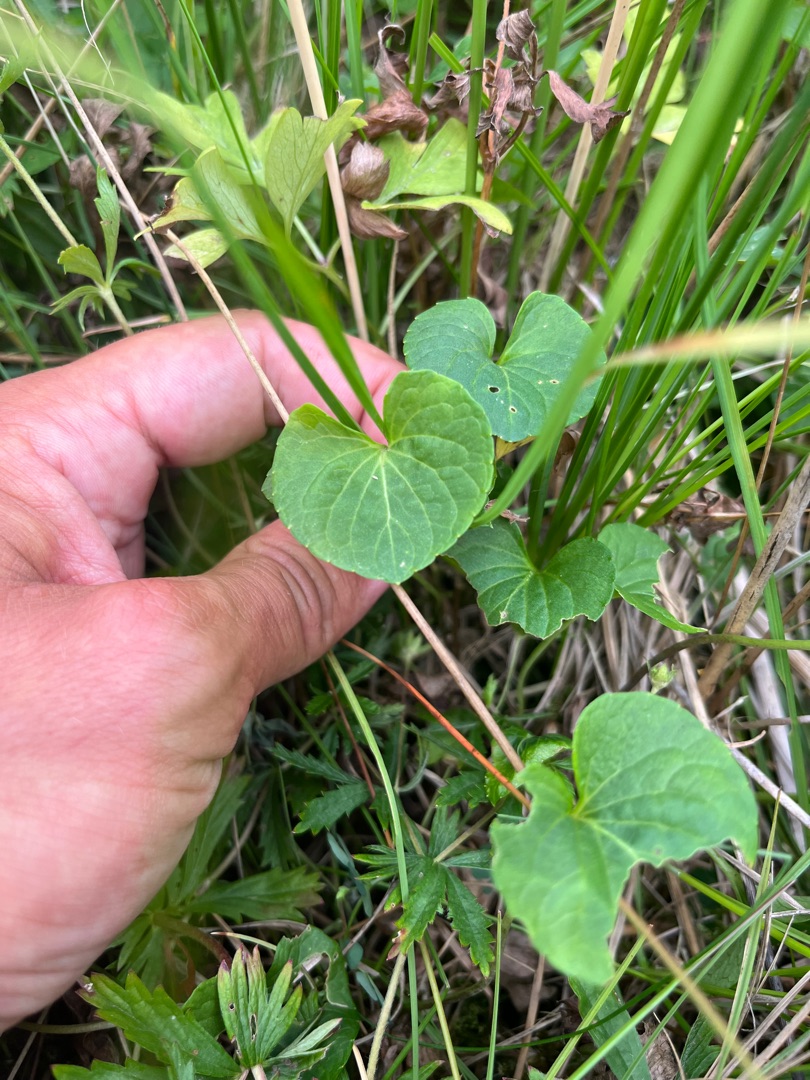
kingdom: Plantae
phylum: Tracheophyta
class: Magnoliopsida
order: Malpighiales
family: Violaceae
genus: Viola
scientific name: Viola palustris
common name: Eng-viol
